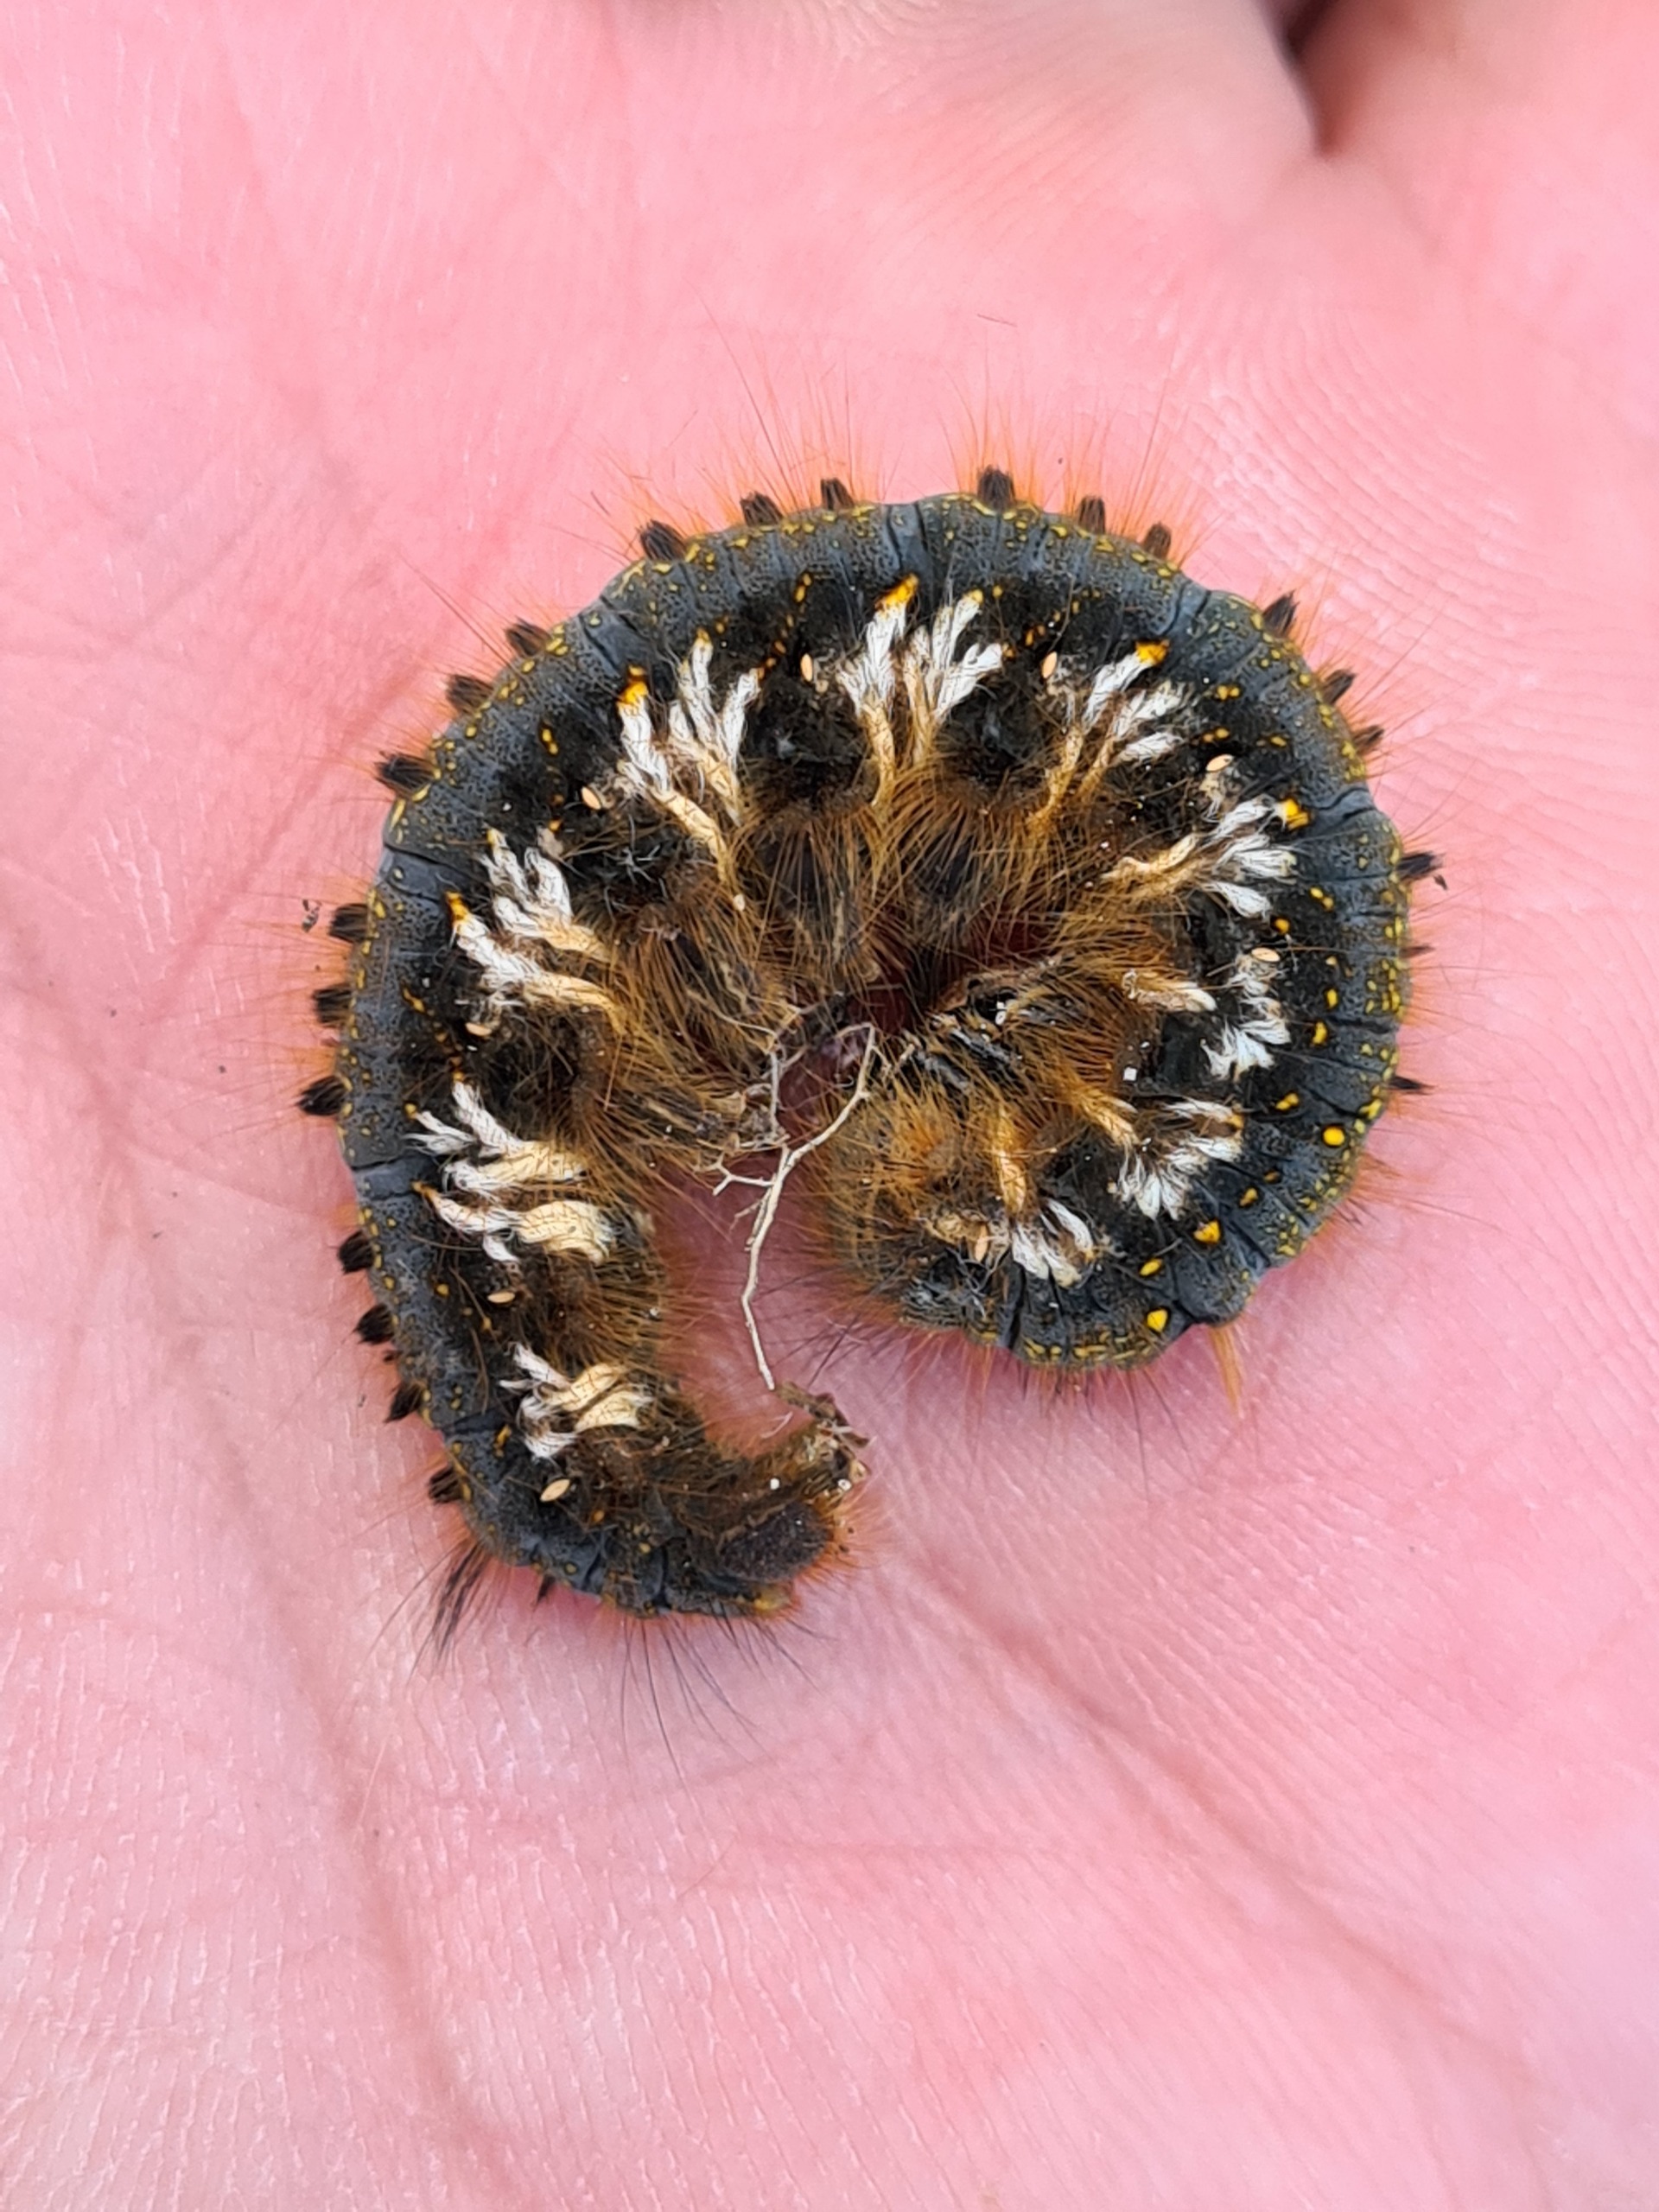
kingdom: Animalia
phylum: Arthropoda
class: Insecta
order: Lepidoptera
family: Lasiocampidae
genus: Euthrix
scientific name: Euthrix potatoria
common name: Græsspinder
